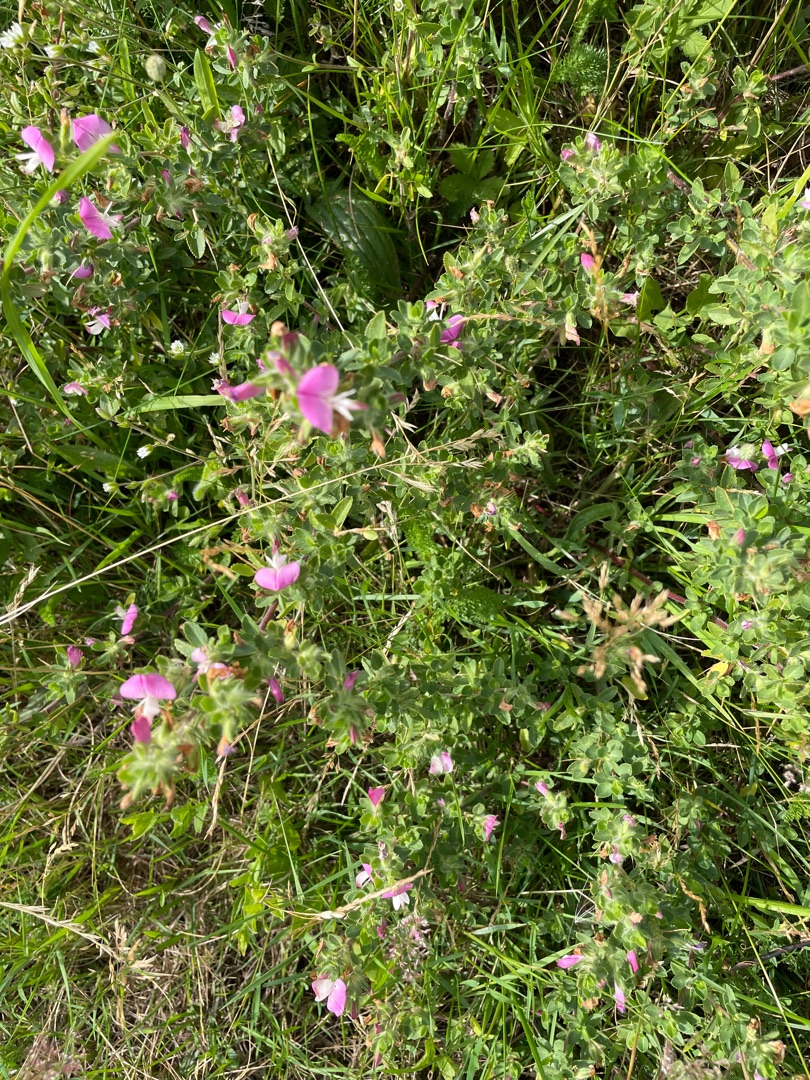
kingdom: Plantae
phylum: Tracheophyta
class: Magnoliopsida
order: Fabales
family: Fabaceae
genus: Ononis
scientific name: Ononis spinosa
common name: Mark-krageklo
